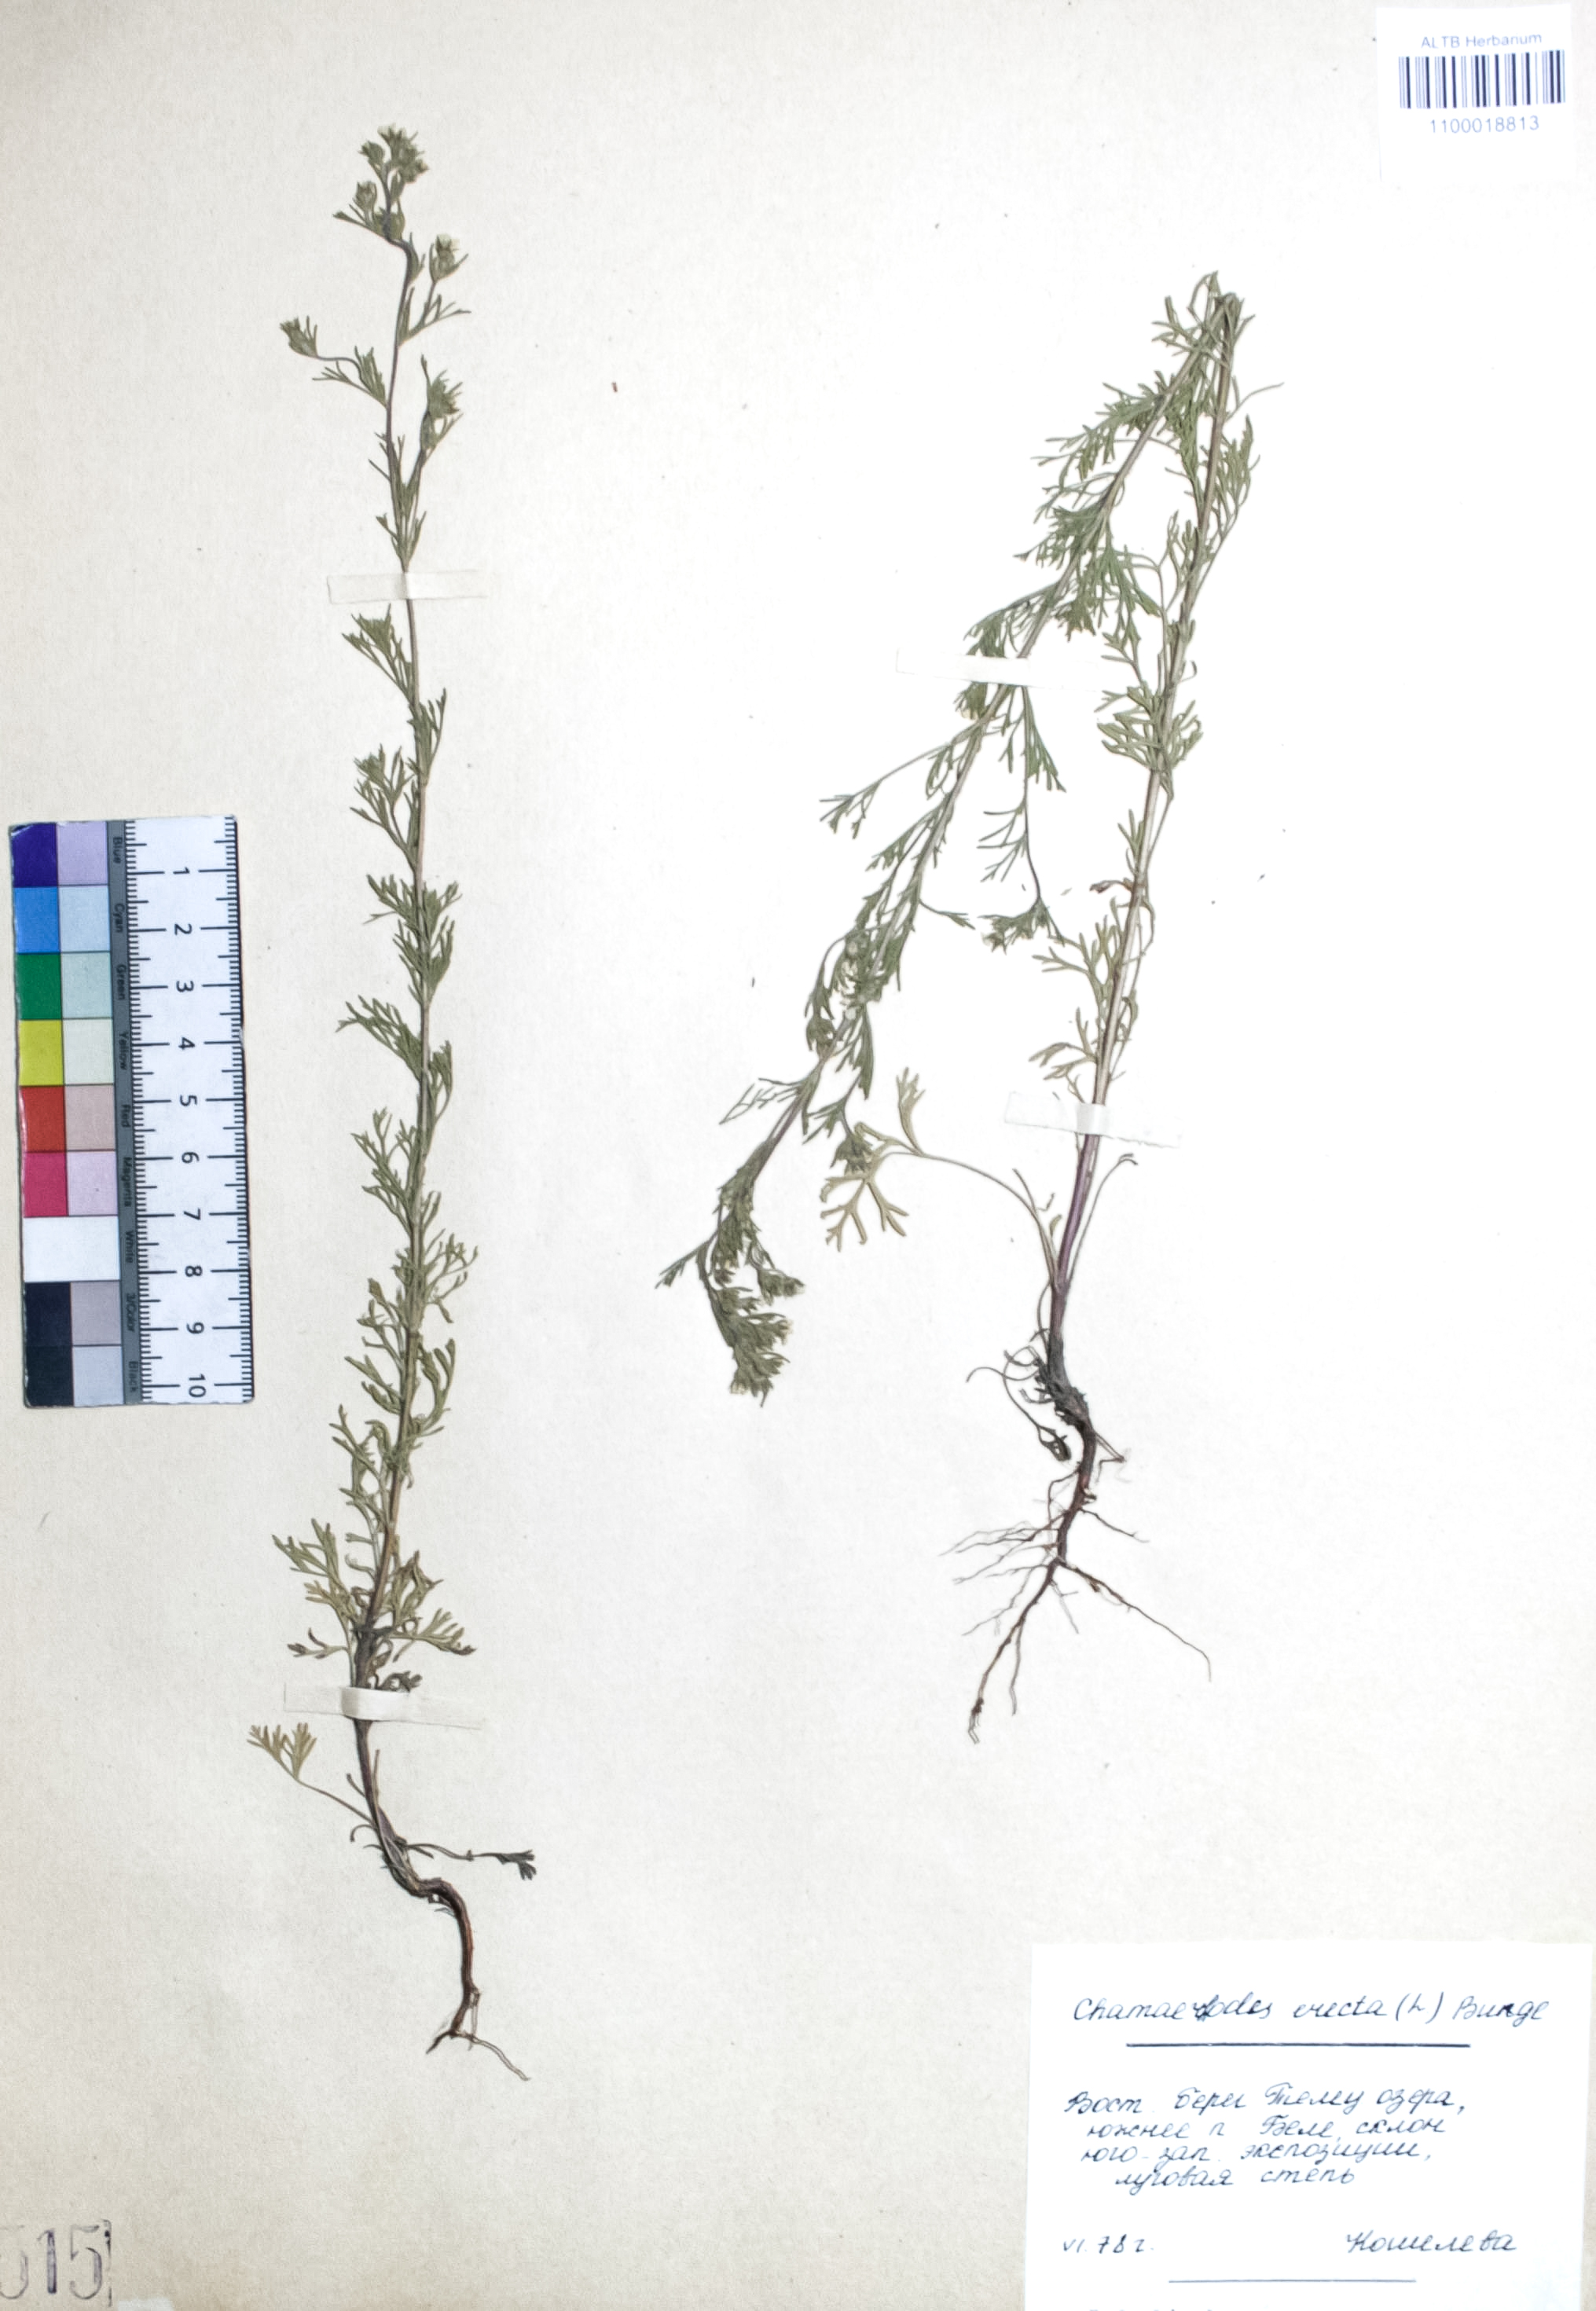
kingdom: Plantae
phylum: Tracheophyta
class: Magnoliopsida
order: Rosales
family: Rosaceae
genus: Chamaerhodos
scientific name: Chamaerhodos erecta
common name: American chamaerhodos
